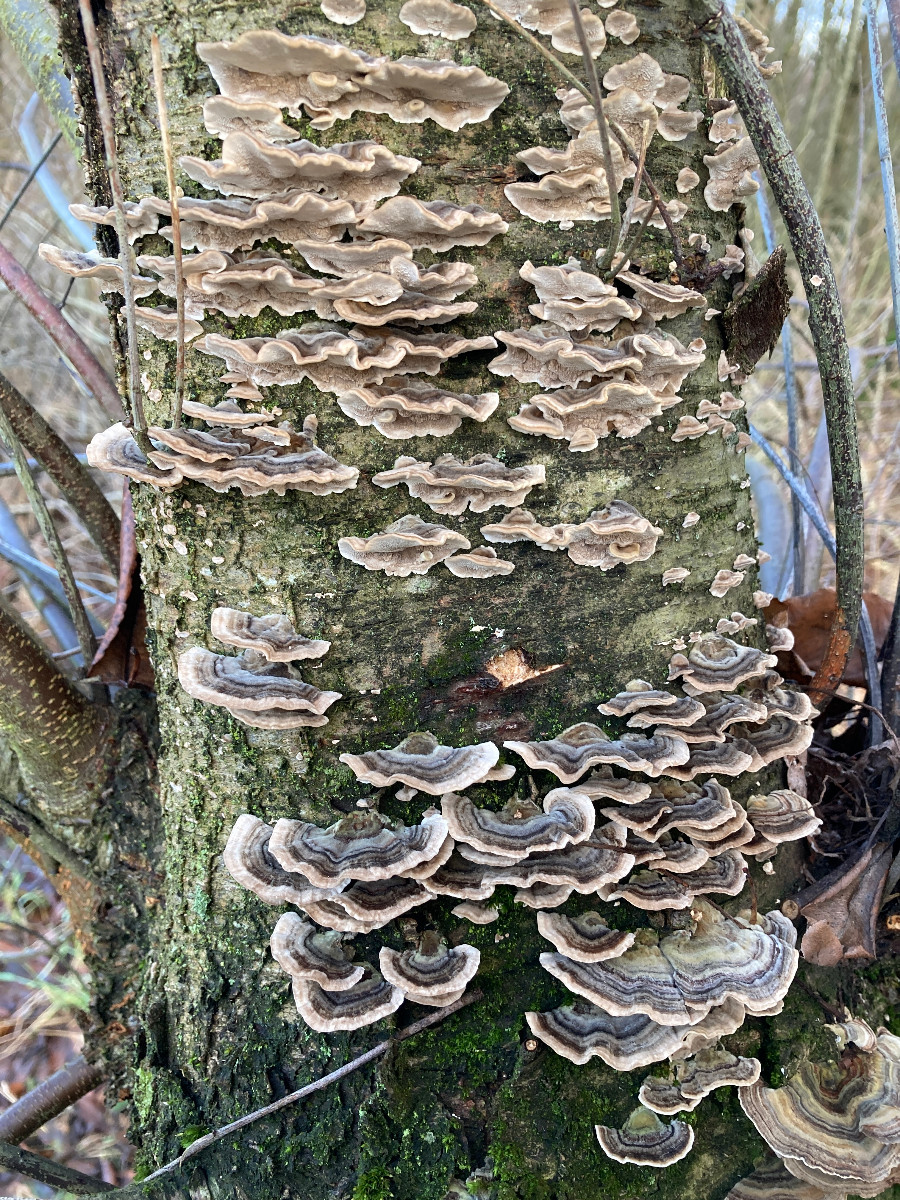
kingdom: Fungi
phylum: Basidiomycota
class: Agaricomycetes
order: Polyporales
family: Polyporaceae
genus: Trametes
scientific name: Trametes versicolor
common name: broget læderporesvamp
